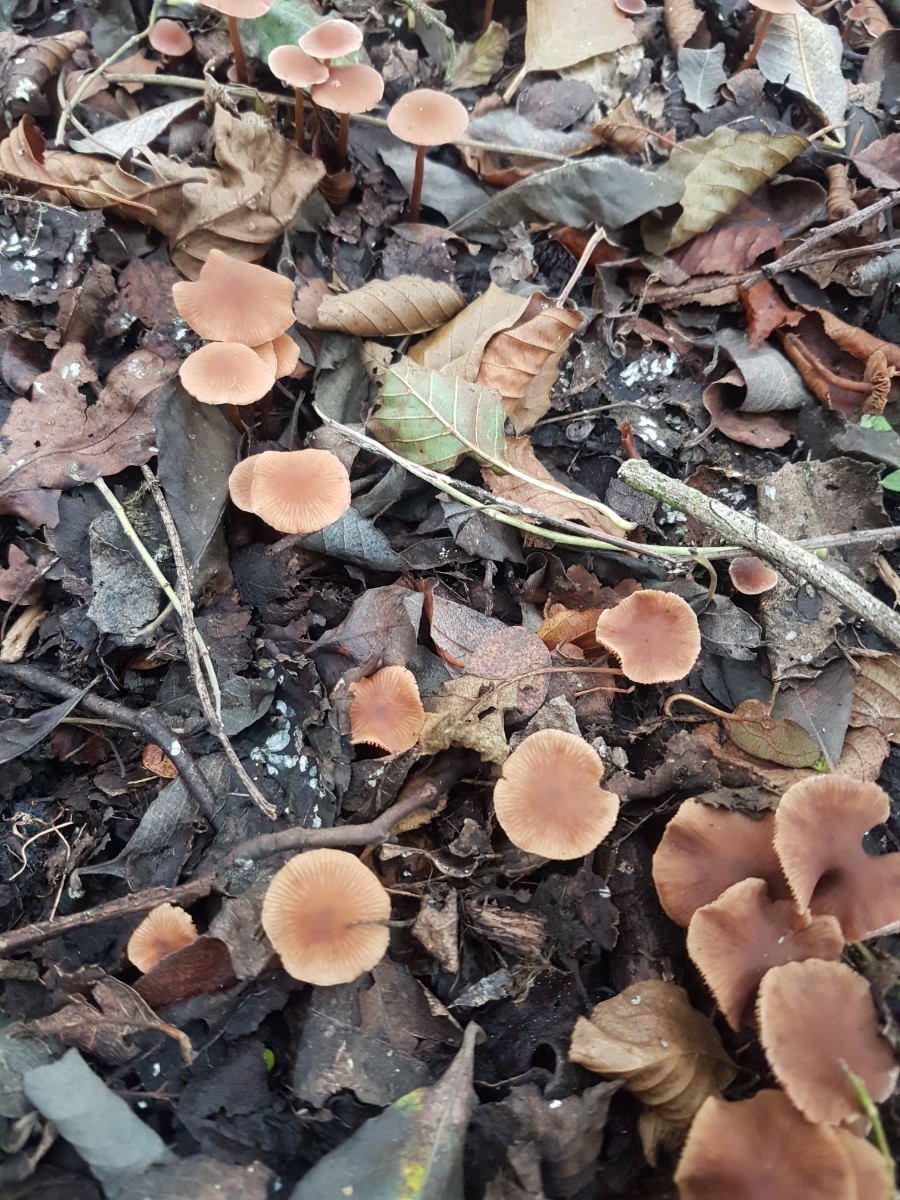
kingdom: Fungi
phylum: Basidiomycota
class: Agaricomycetes
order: Agaricales
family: Hymenogastraceae
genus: Naucoria
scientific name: Naucoria scolecina
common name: mørk elle-knaphat
